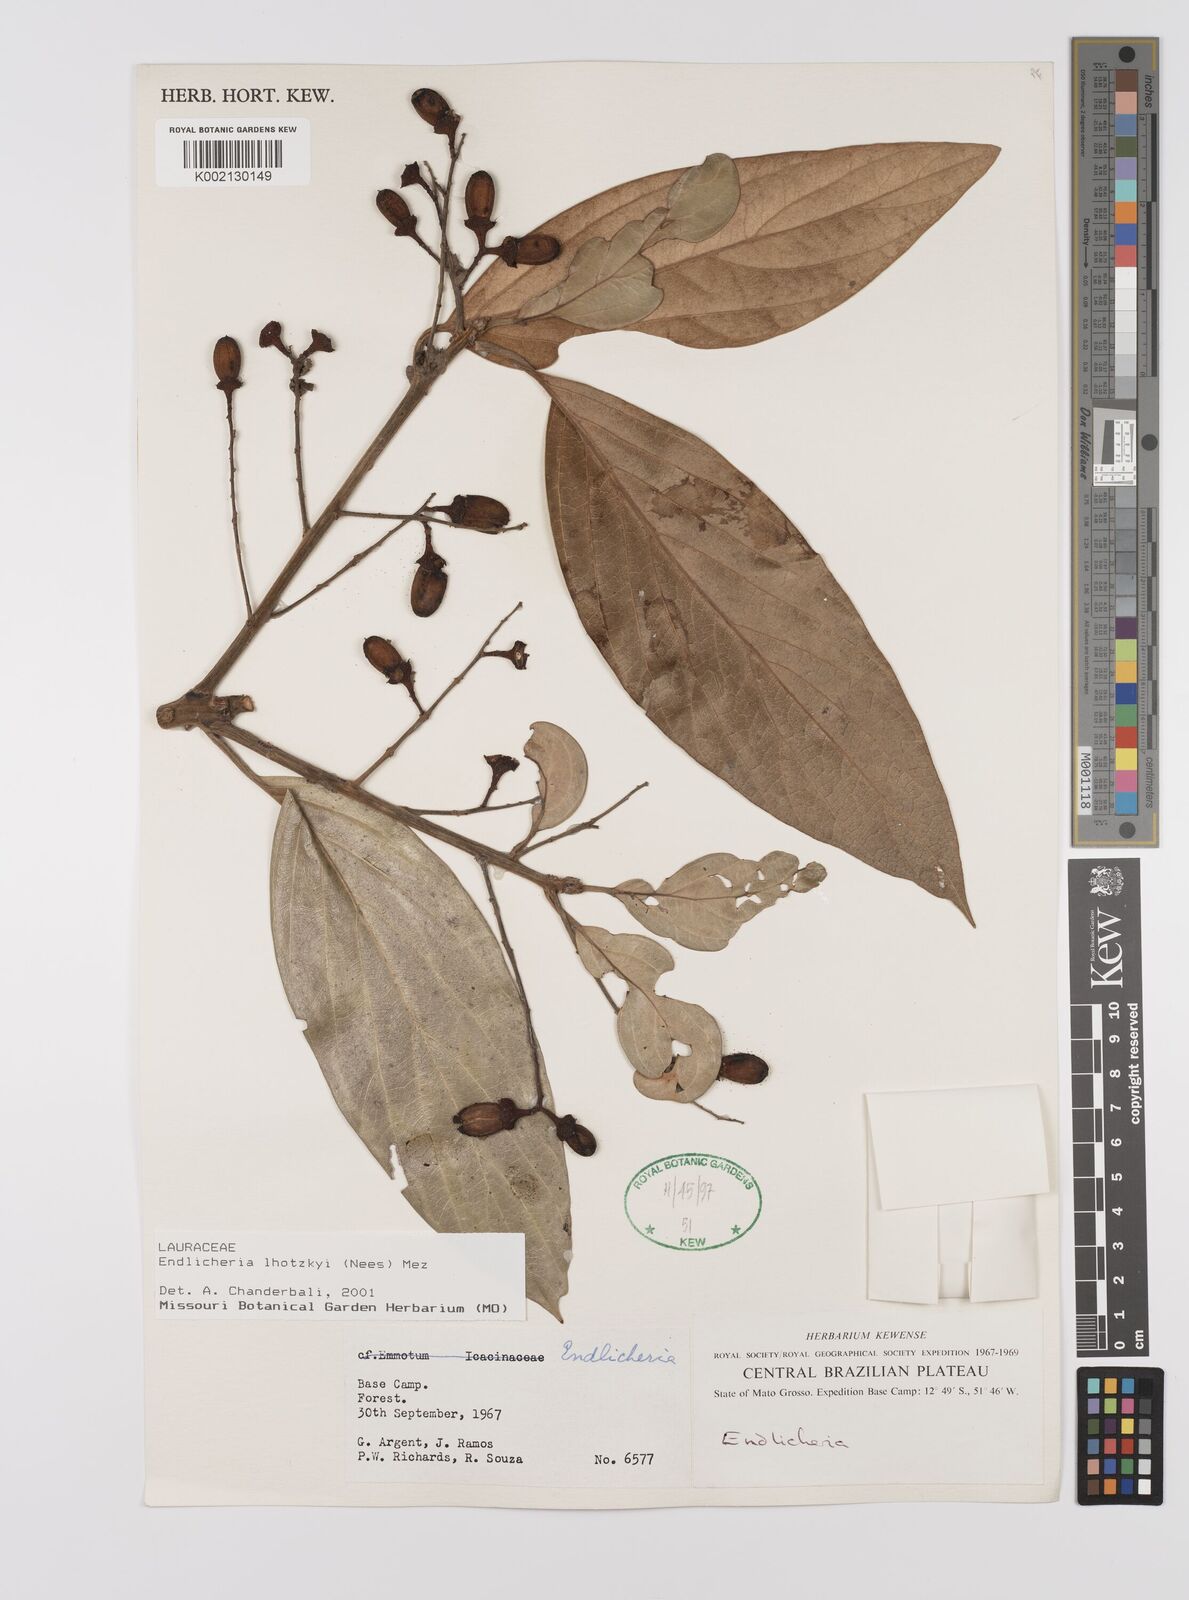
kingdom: Plantae
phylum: Tracheophyta
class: Magnoliopsida
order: Laurales
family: Lauraceae
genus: Endlicheria
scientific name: Endlicheria lhotzkyi
